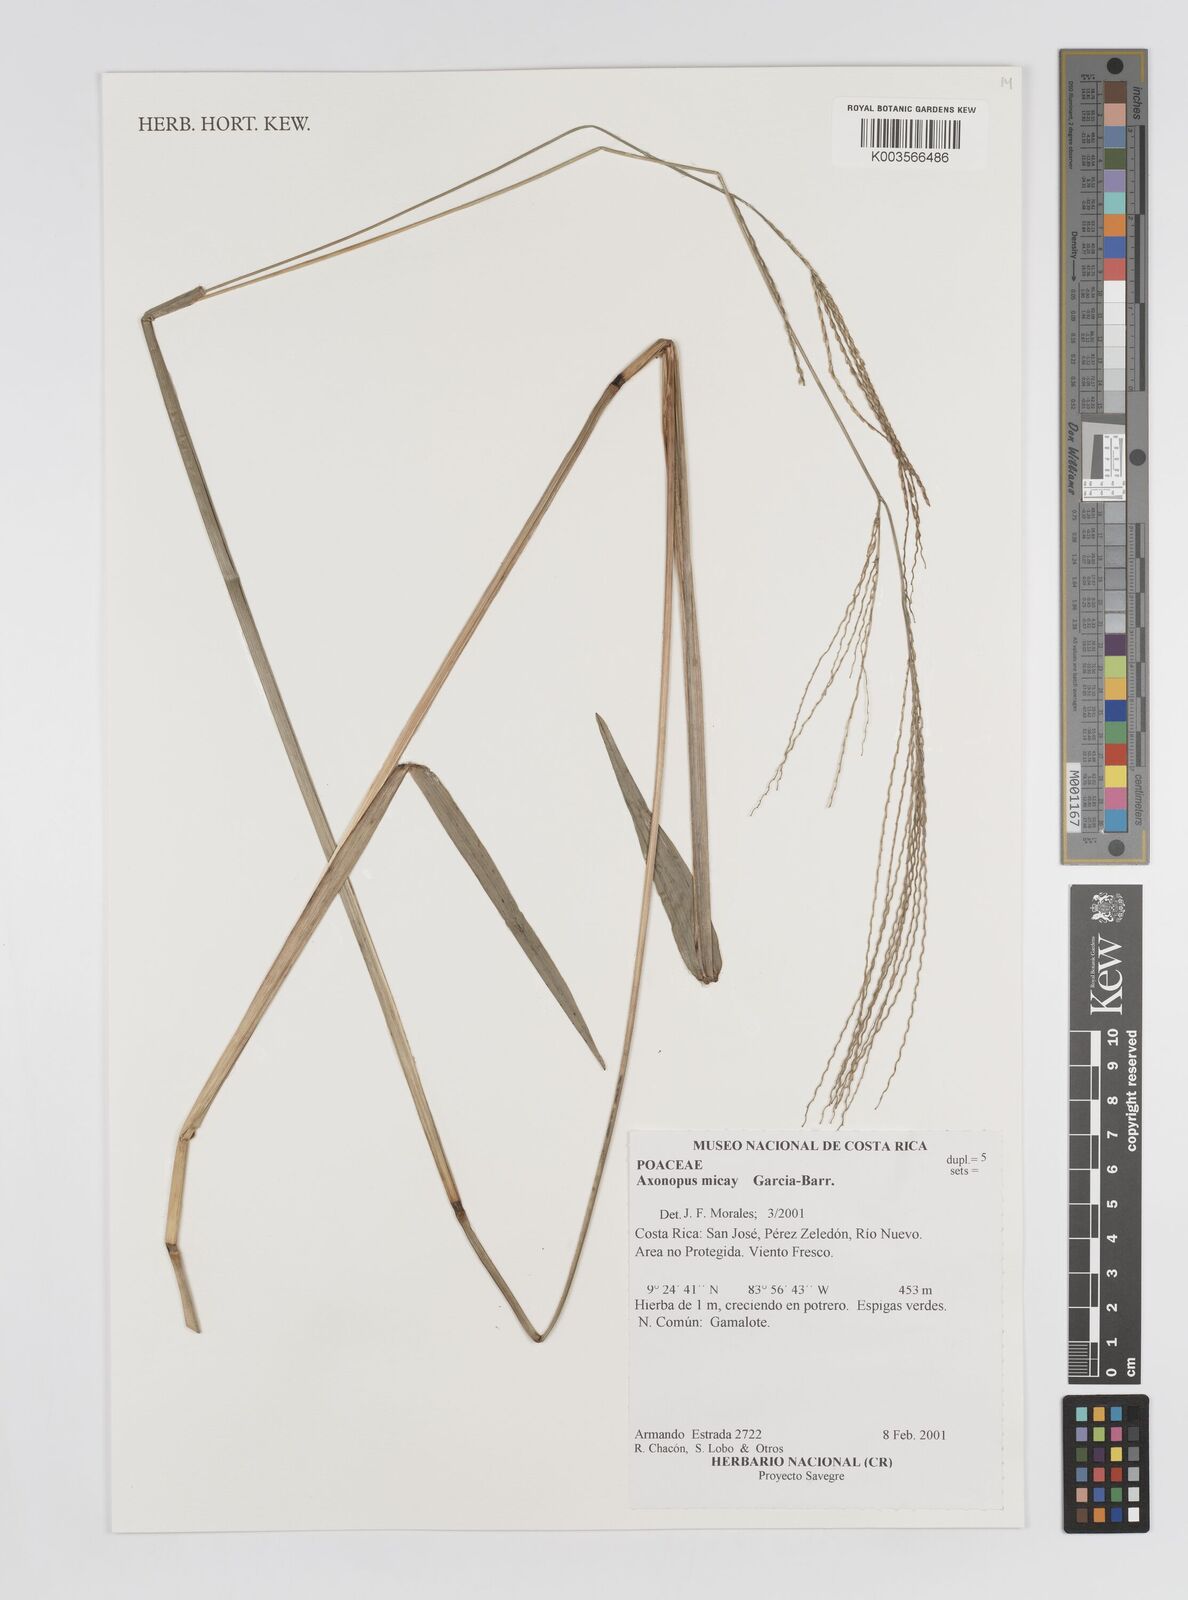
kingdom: Plantae
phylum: Tracheophyta
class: Liliopsida
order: Poales
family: Poaceae
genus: Axonopus
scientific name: Axonopus scoparius
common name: Imperial grass
